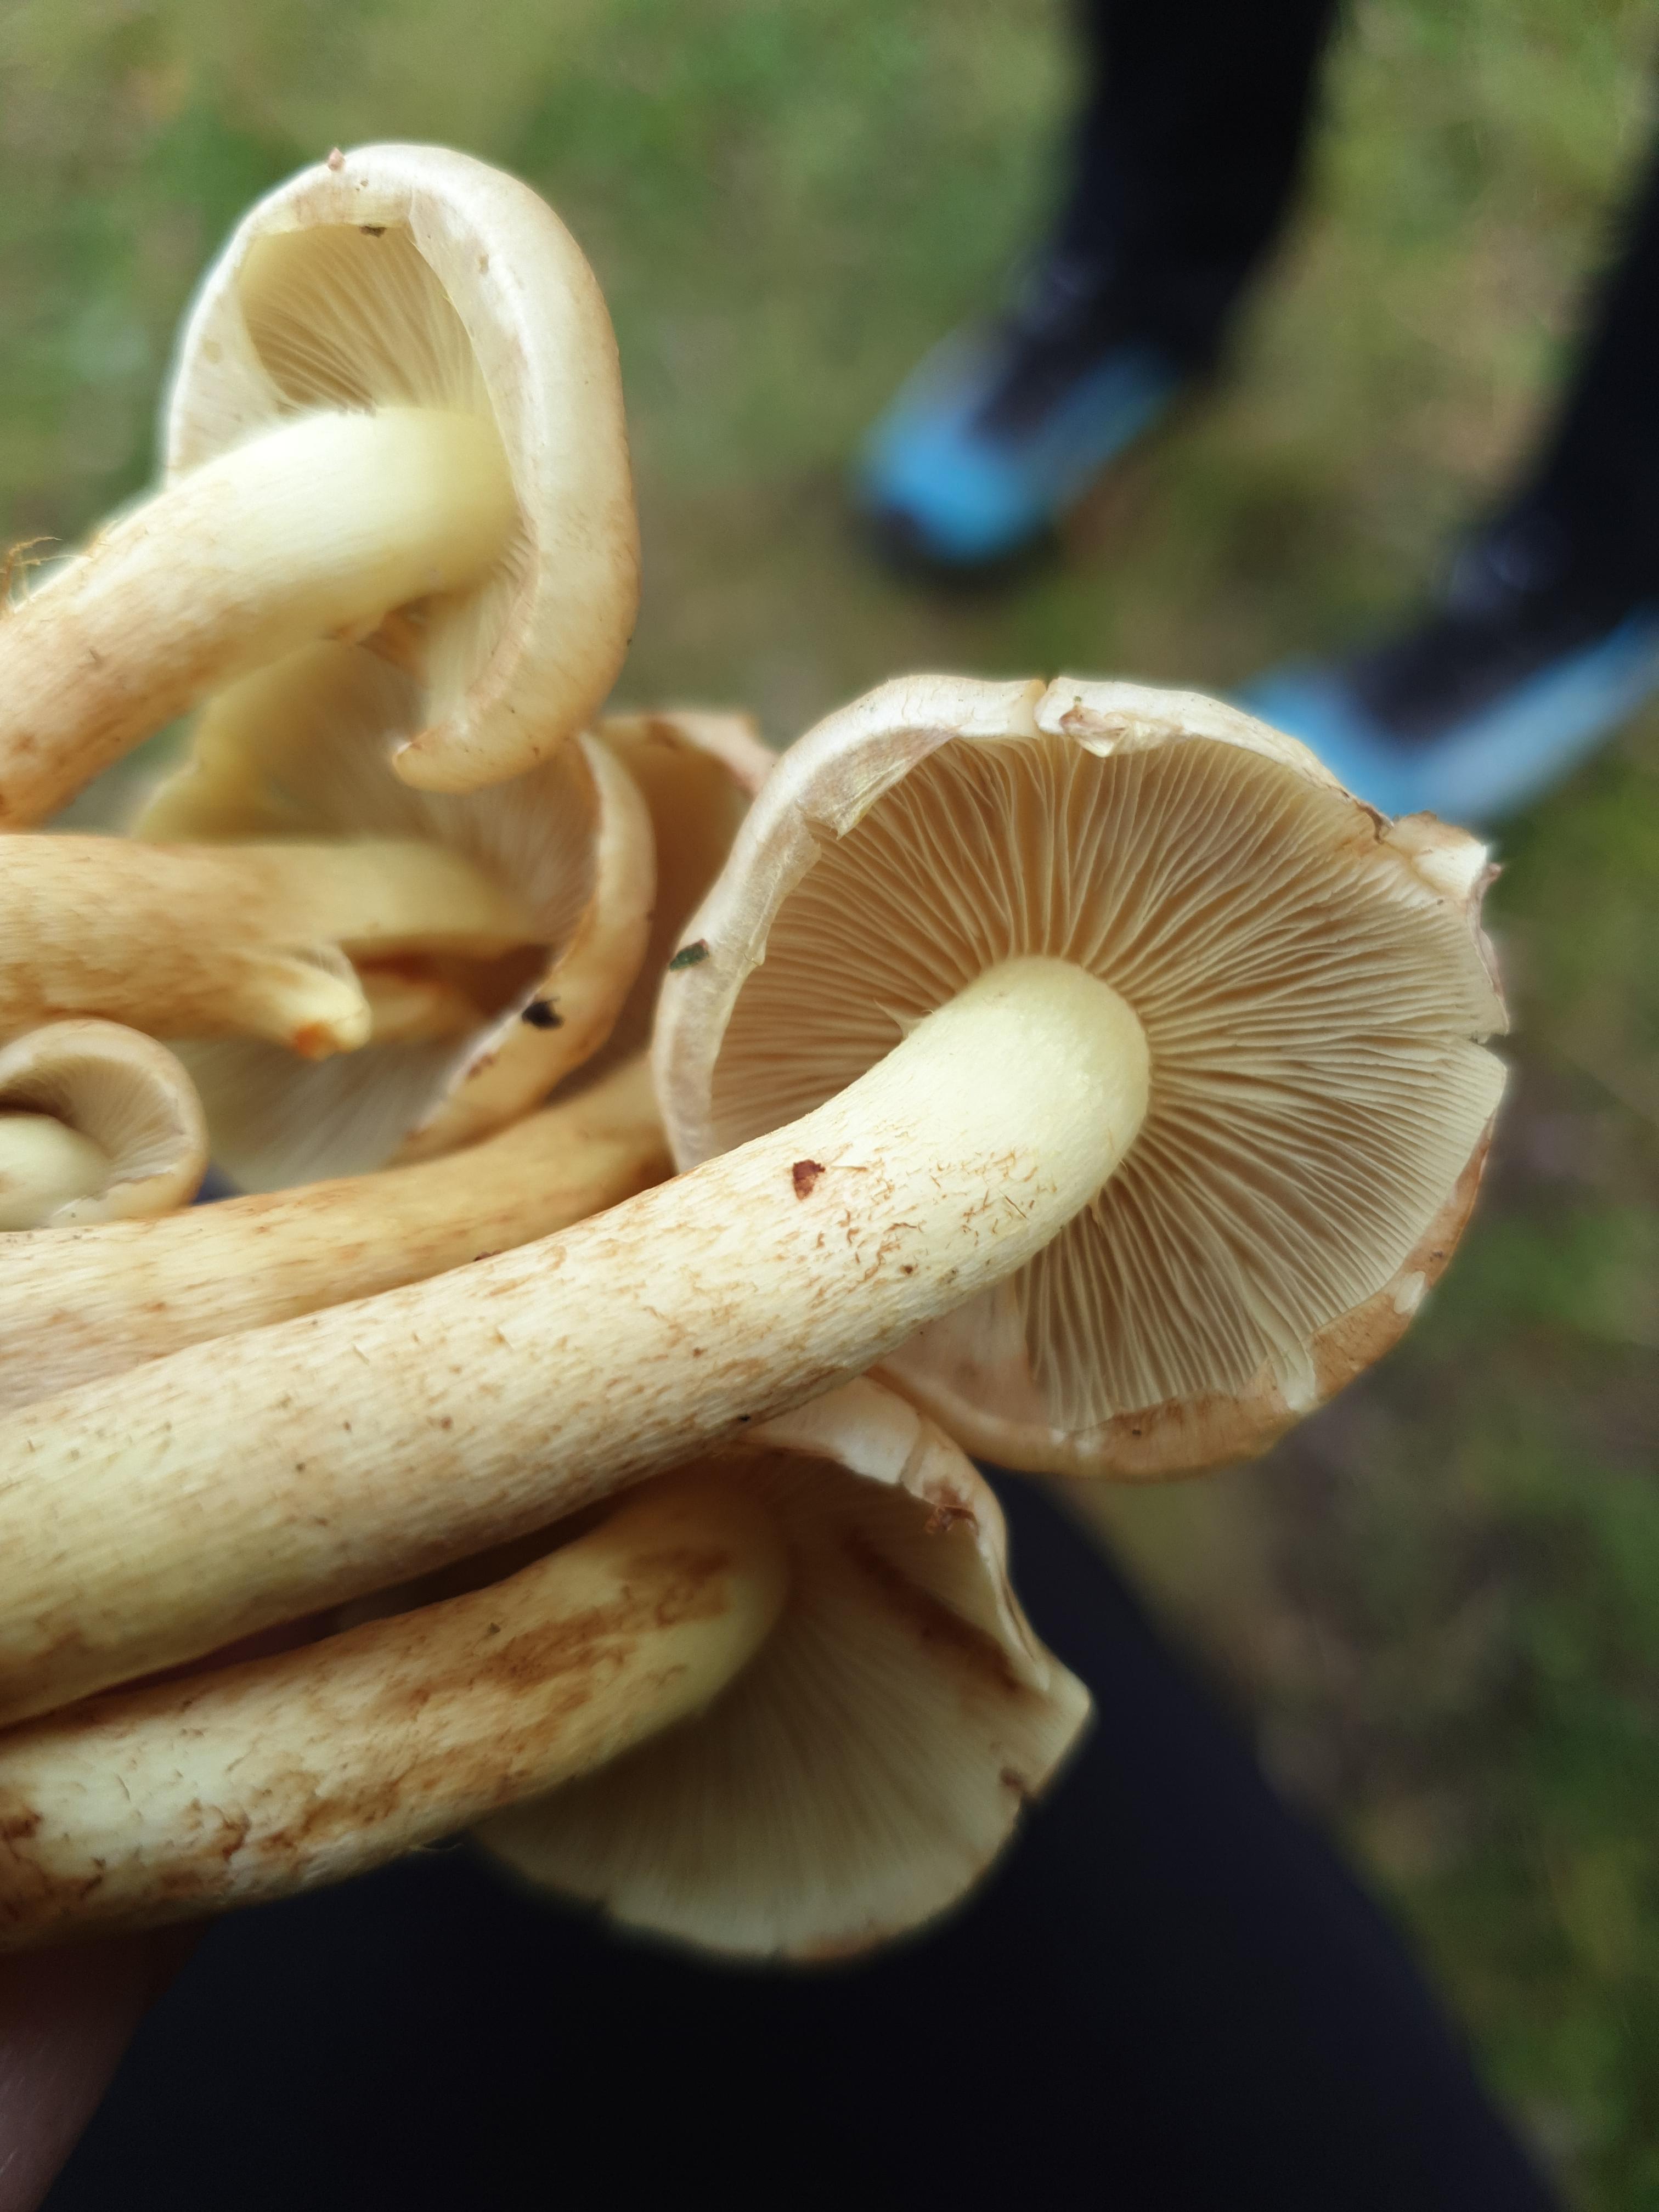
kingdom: Fungi
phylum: Basidiomycota
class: Agaricomycetes
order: Agaricales
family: Strophariaceae
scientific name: Strophariaceae
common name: bredbladfamilien
